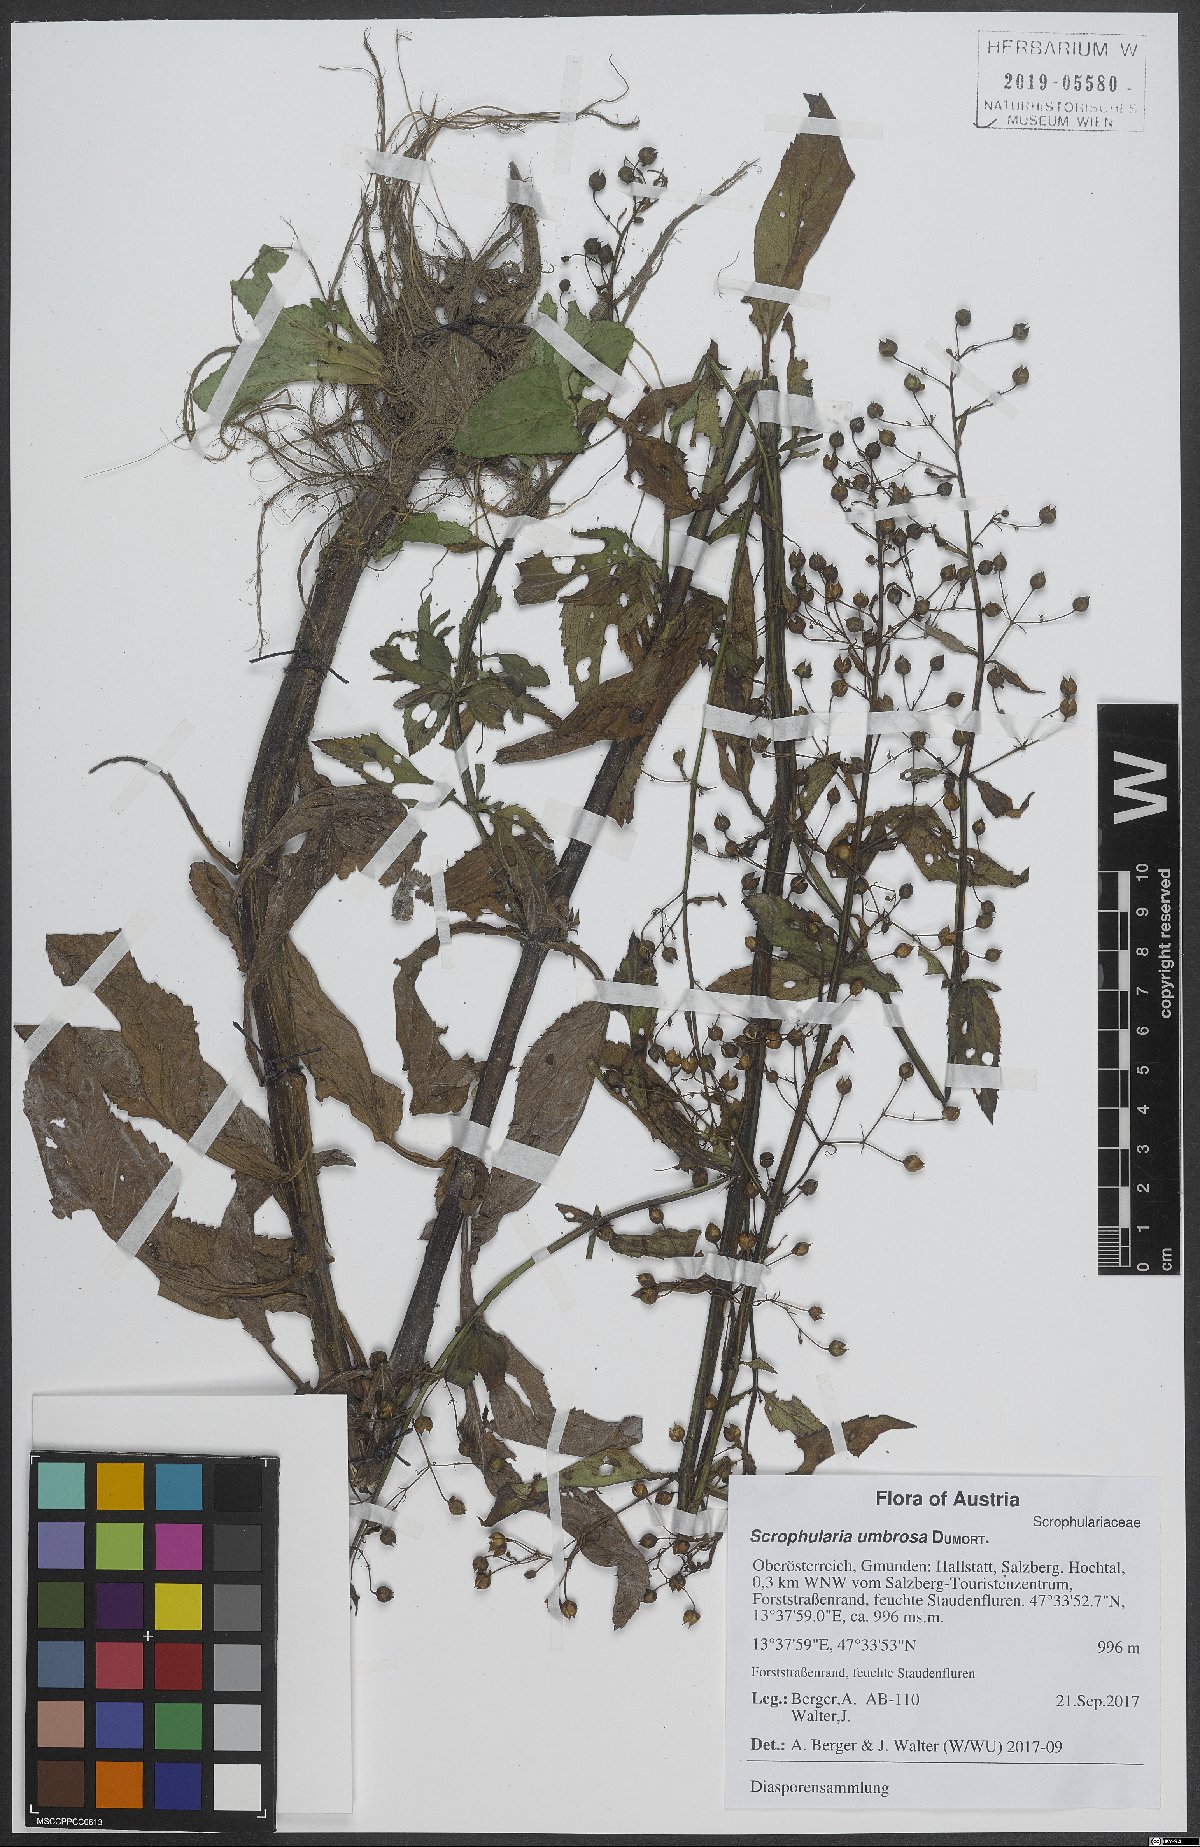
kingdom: Plantae
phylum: Tracheophyta
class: Magnoliopsida
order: Lamiales
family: Scrophulariaceae
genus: Scrophularia
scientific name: Scrophularia umbrosa
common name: Green figwort
